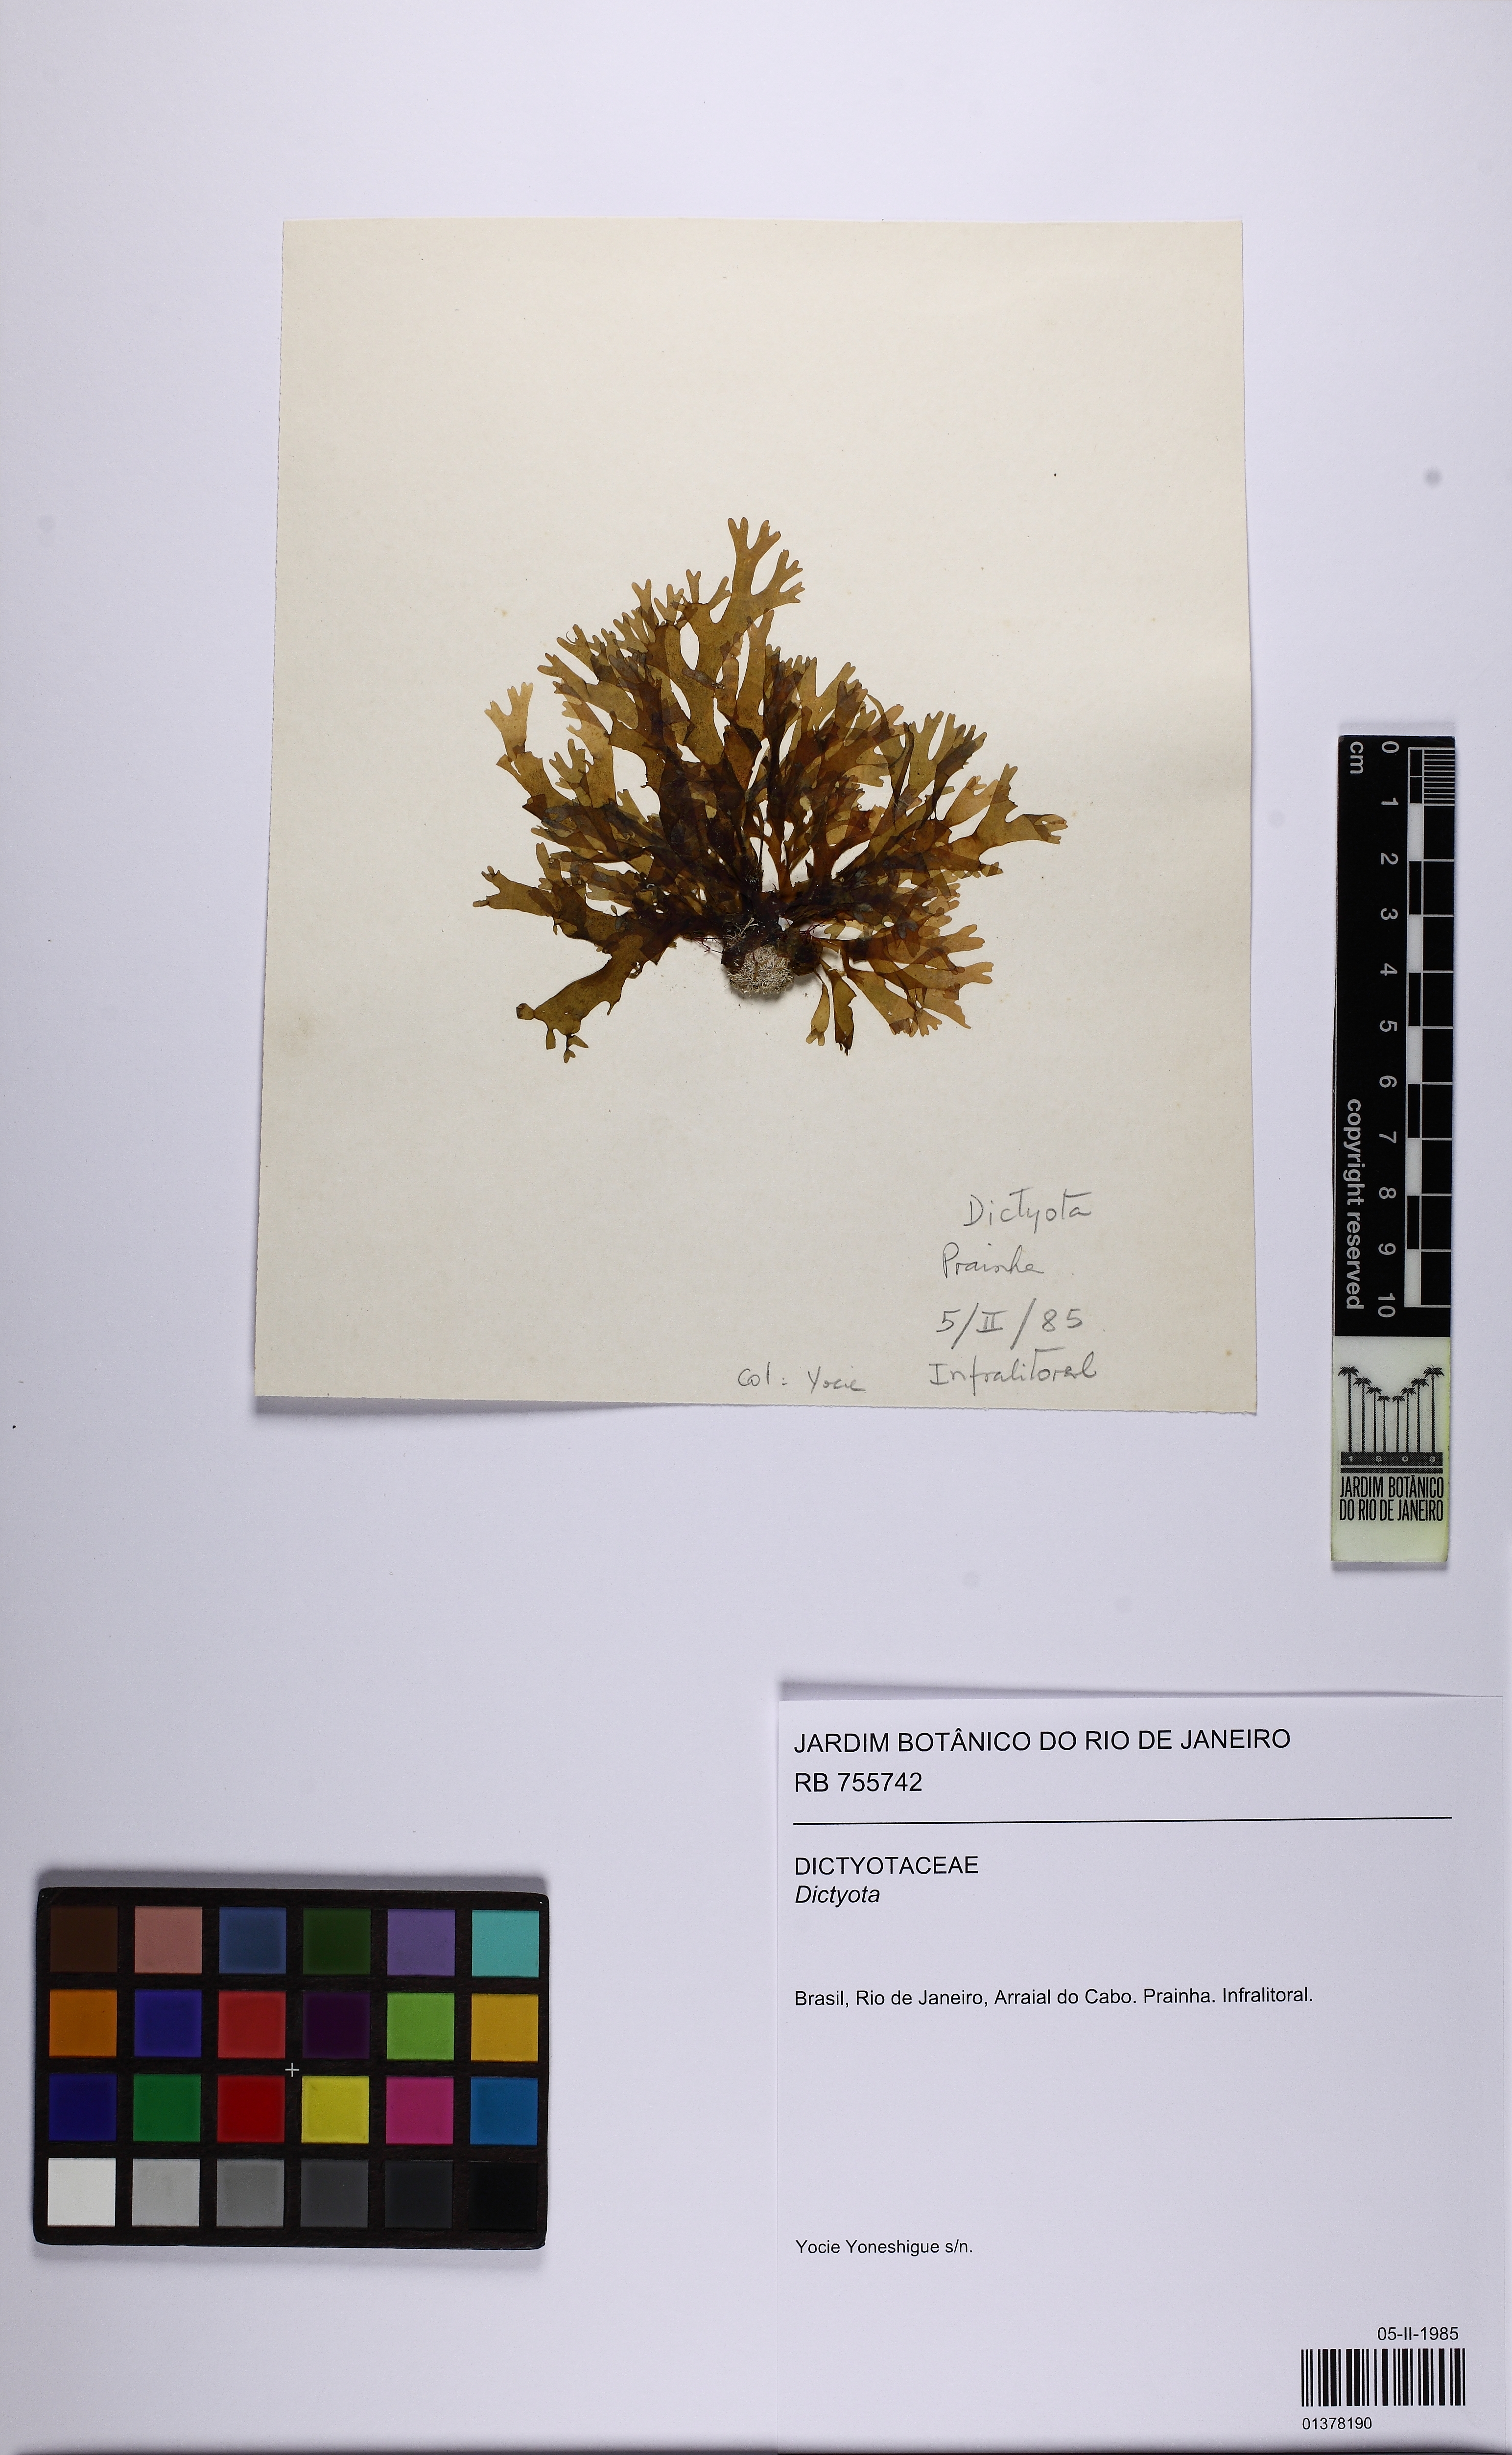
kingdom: Chromista
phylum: Ochrophyta
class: Phaeophyceae
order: Dictyotales
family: Dictyotaceae
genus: Dictyota
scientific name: Dictyota
